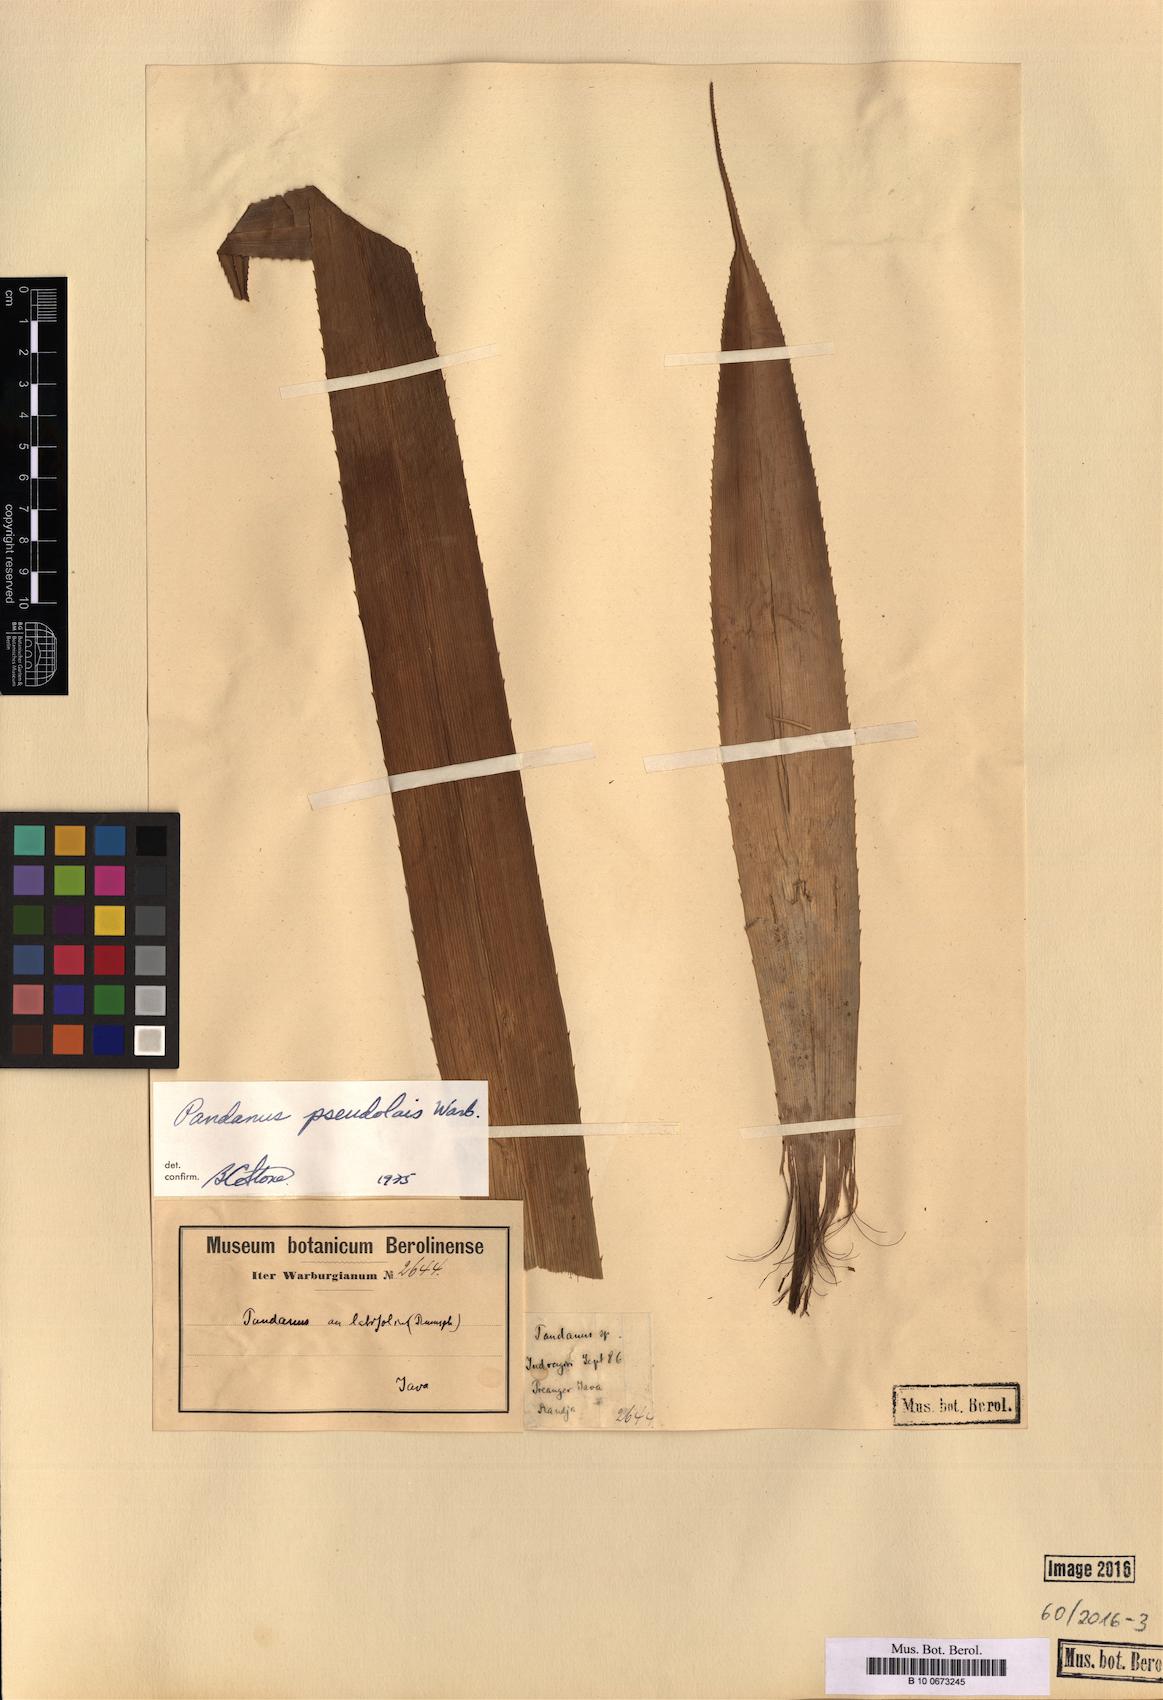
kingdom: Plantae
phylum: Tracheophyta
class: Liliopsida
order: Pandanales
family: Pandanaceae
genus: Pandanus
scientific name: Pandanus pseudolais
